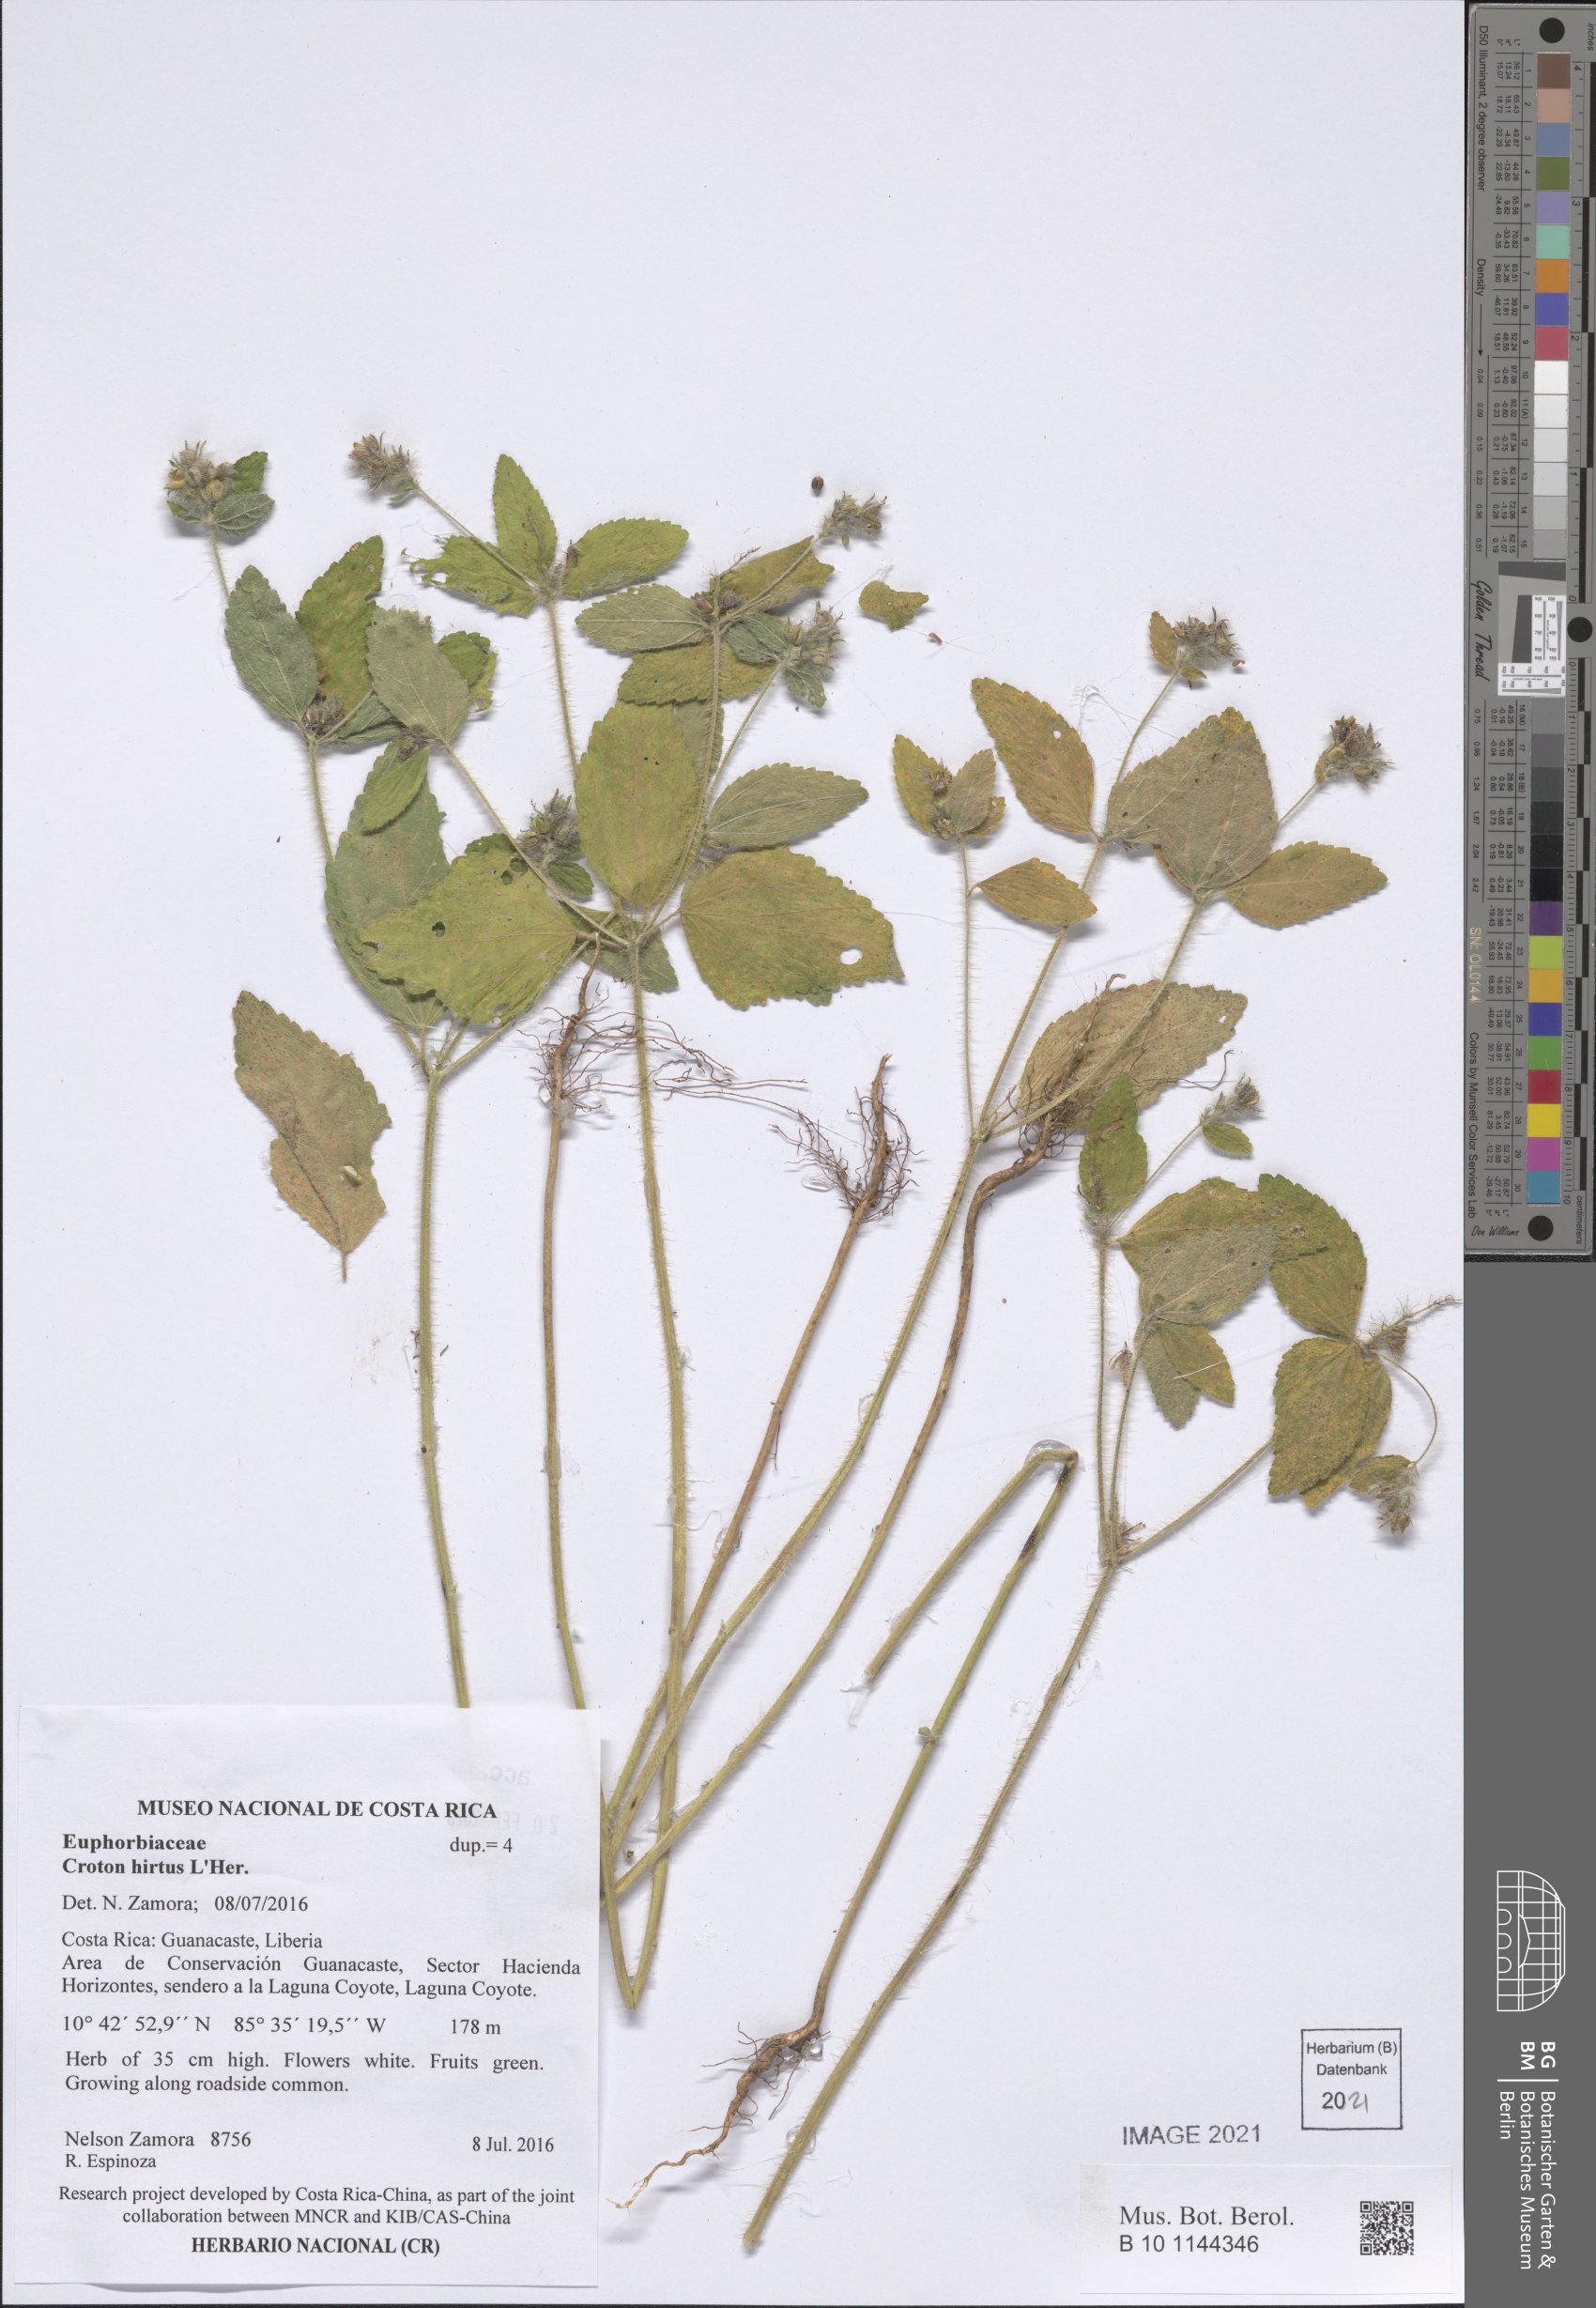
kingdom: Plantae
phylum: Tracheophyta
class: Magnoliopsida
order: Malpighiales
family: Euphorbiaceae
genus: Croton
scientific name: Croton hirtus
